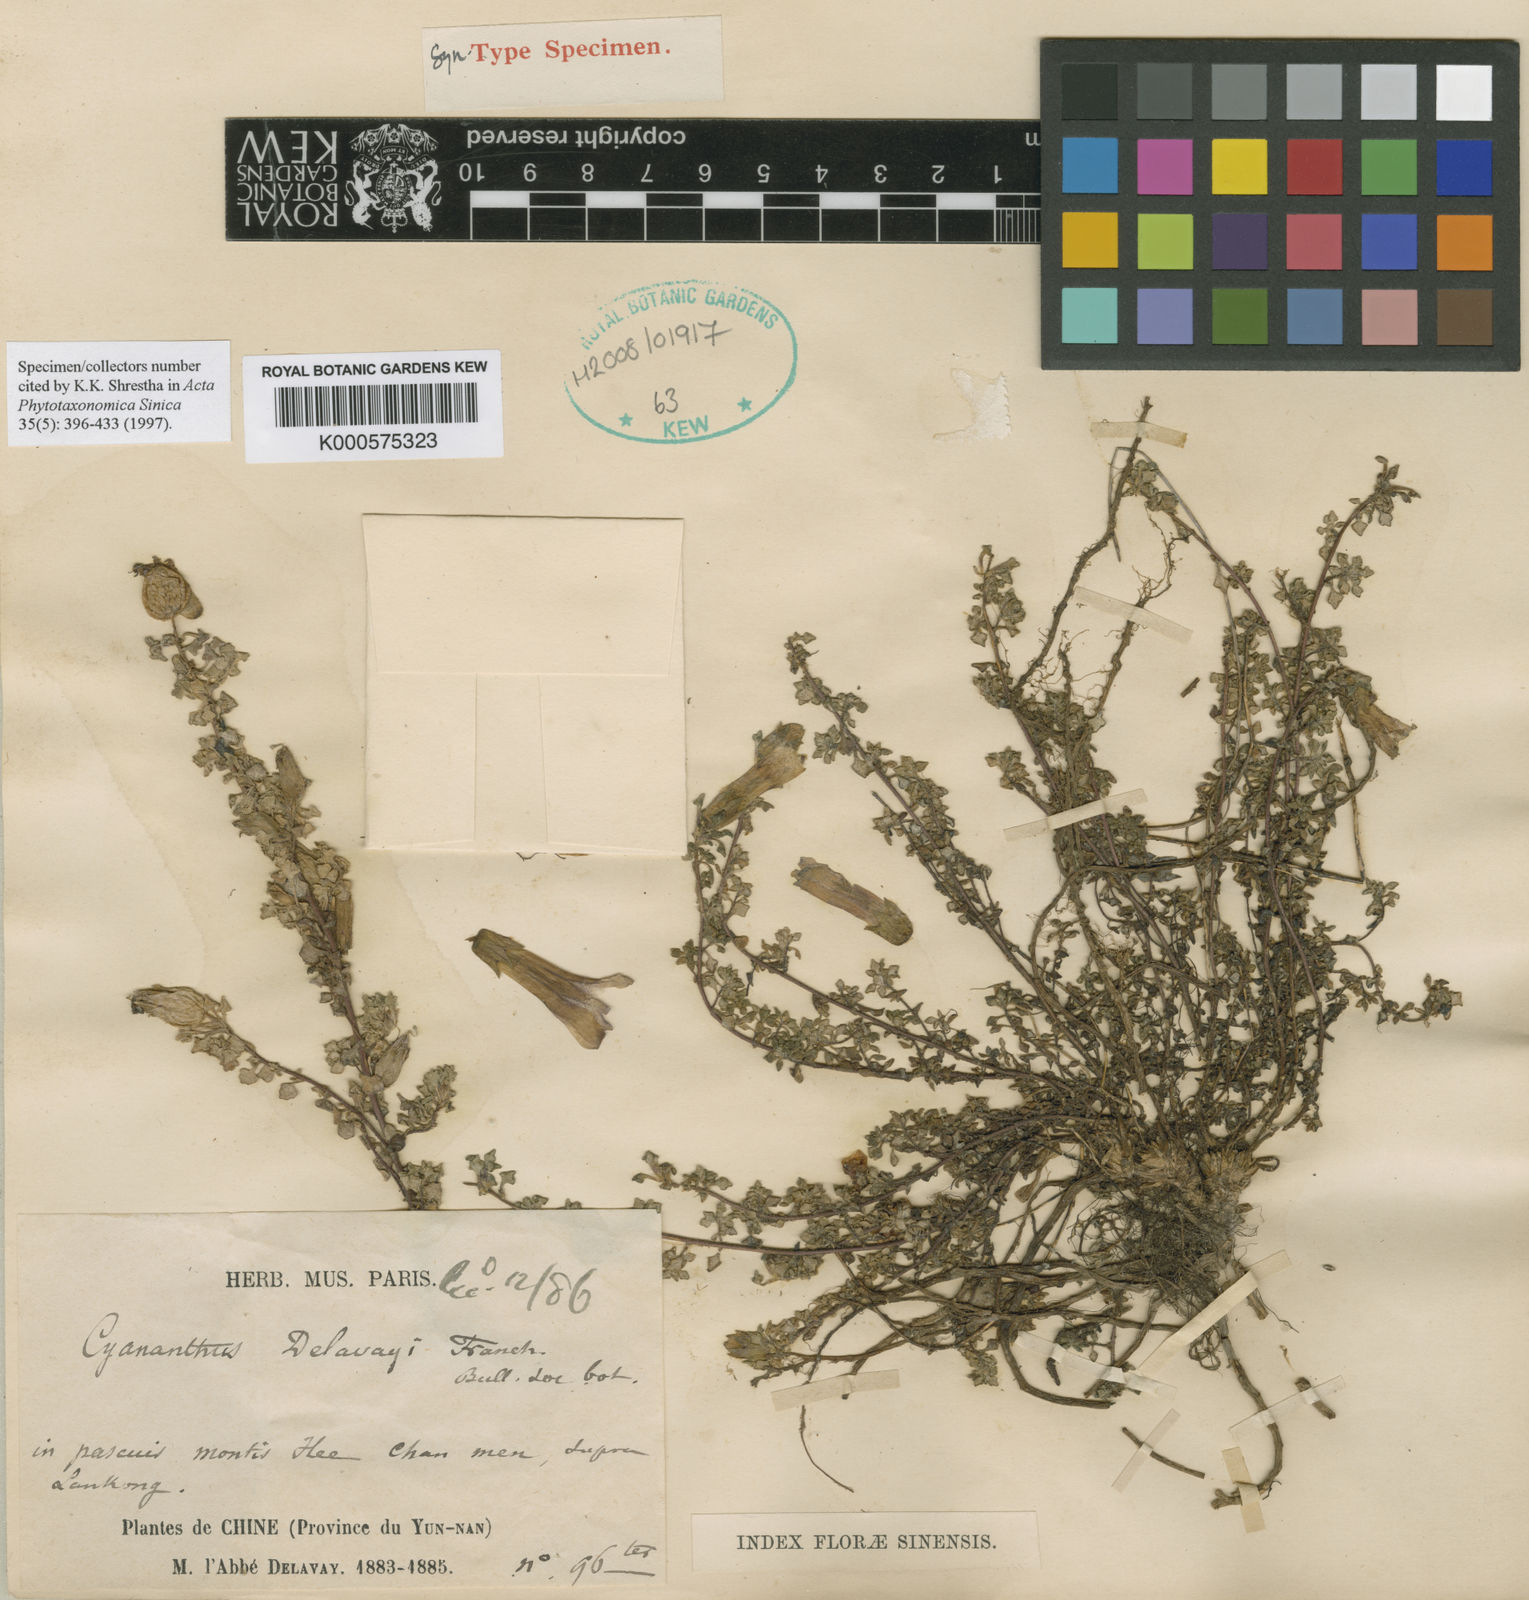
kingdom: Plantae
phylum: Tracheophyta
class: Magnoliopsida
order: Asterales
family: Campanulaceae
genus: Cyananthus
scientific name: Cyananthus delavayi
